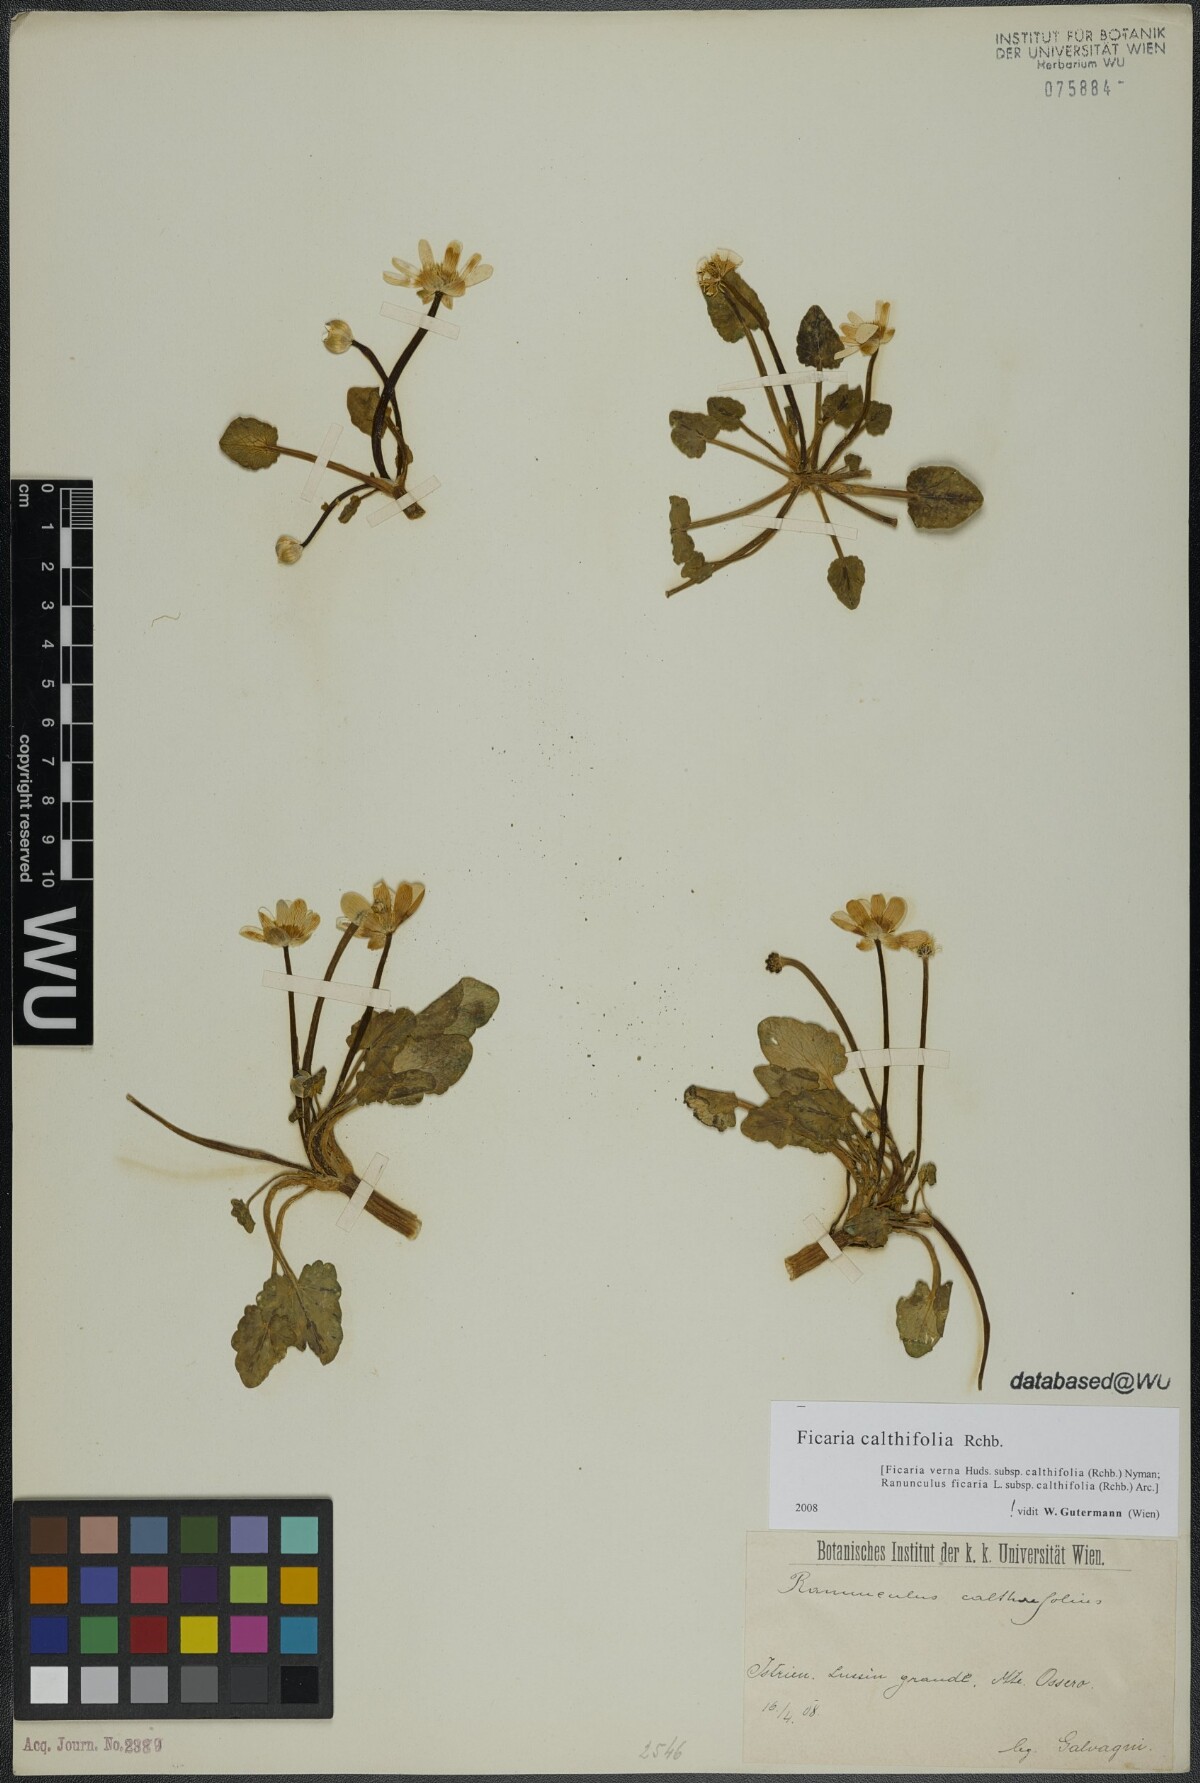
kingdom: Plantae
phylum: Tracheophyta
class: Magnoliopsida
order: Ranunculales
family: Ranunculaceae
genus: Ficaria
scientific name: Ficaria calthifolia
